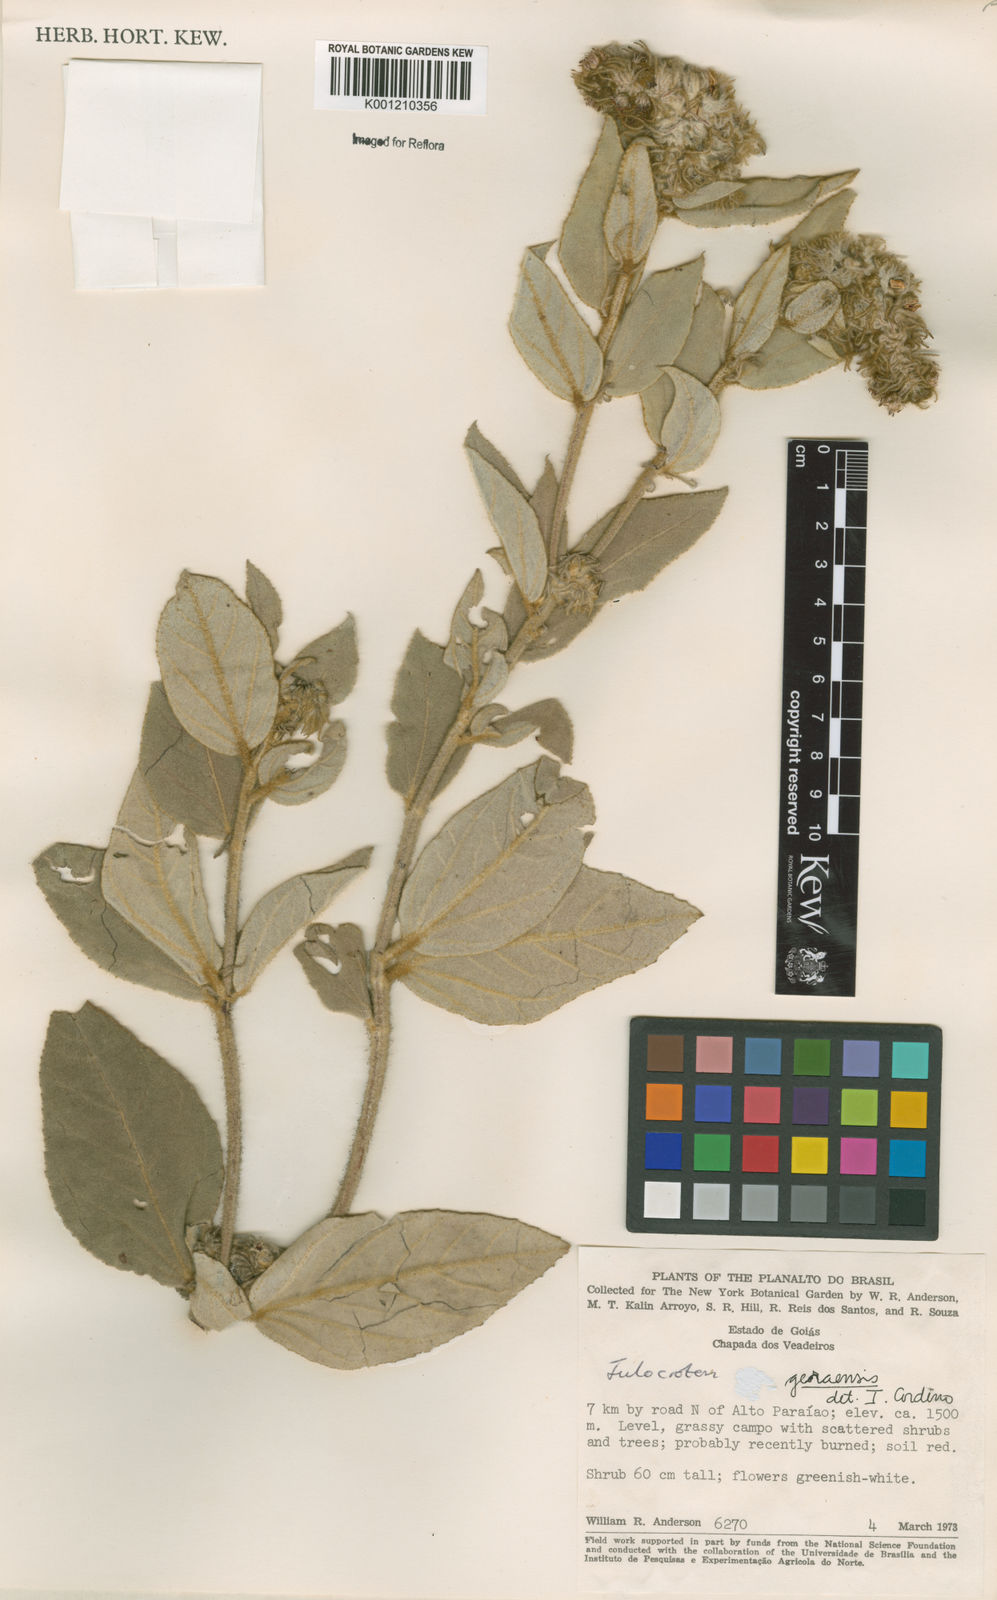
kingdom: Plantae
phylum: Tracheophyta
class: Magnoliopsida
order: Malpighiales
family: Euphorbiaceae
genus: Croton
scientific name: Croton
